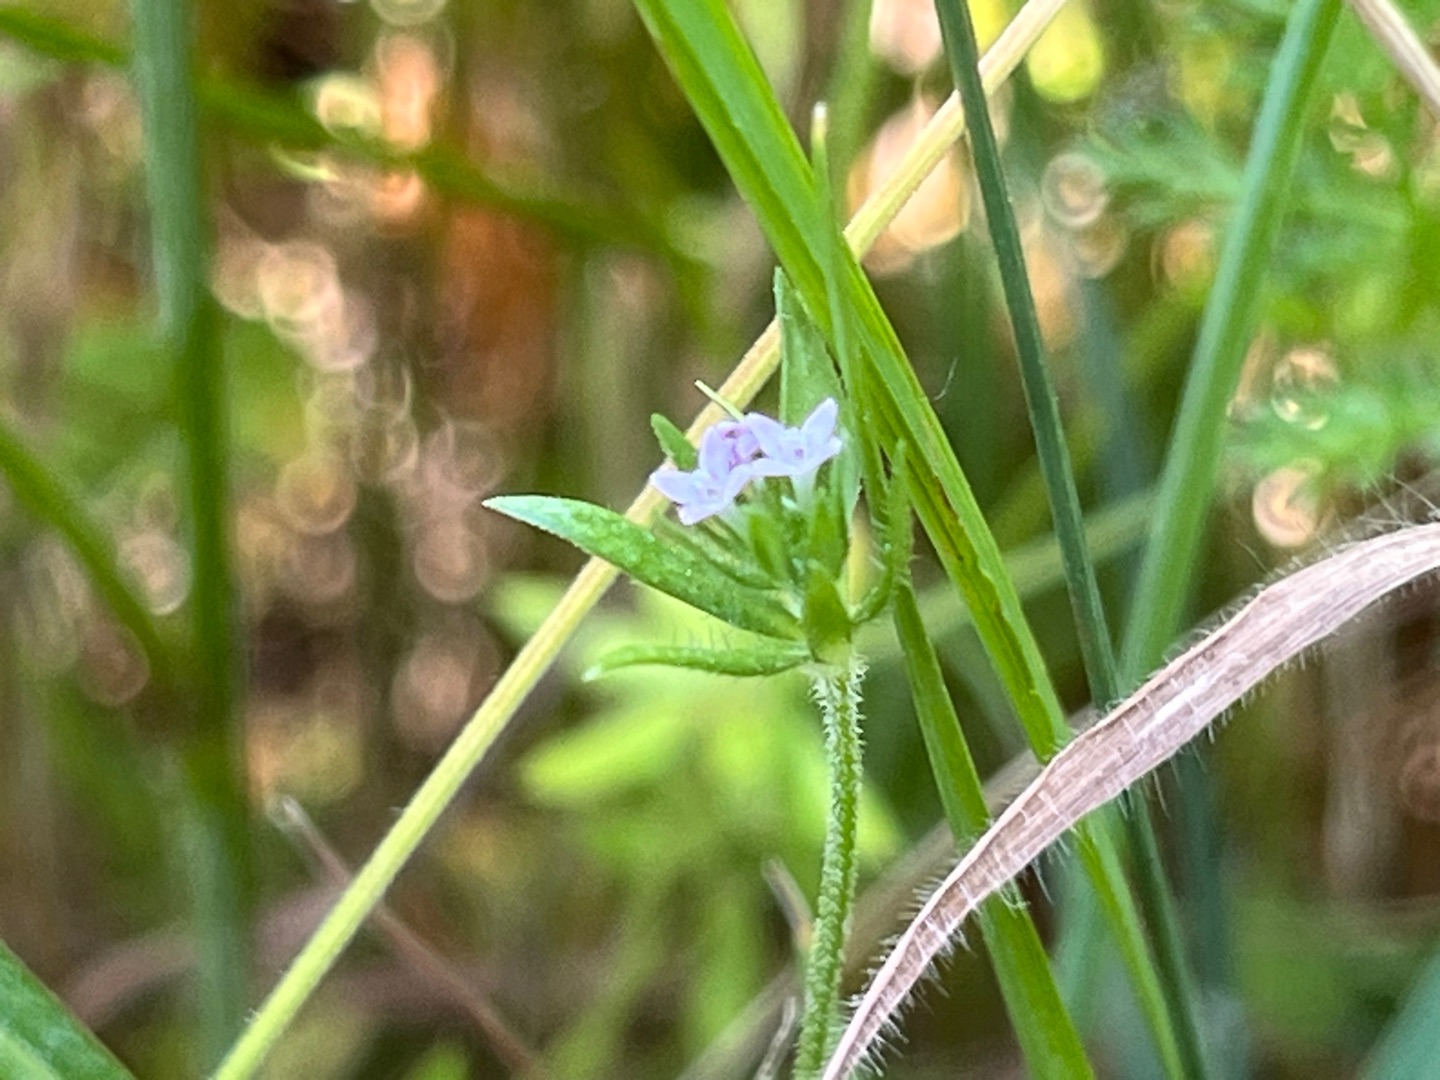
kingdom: Plantae
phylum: Tracheophyta
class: Magnoliopsida
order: Gentianales
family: Rubiaceae
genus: Sherardia
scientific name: Sherardia arvensis
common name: Blåstjerne
